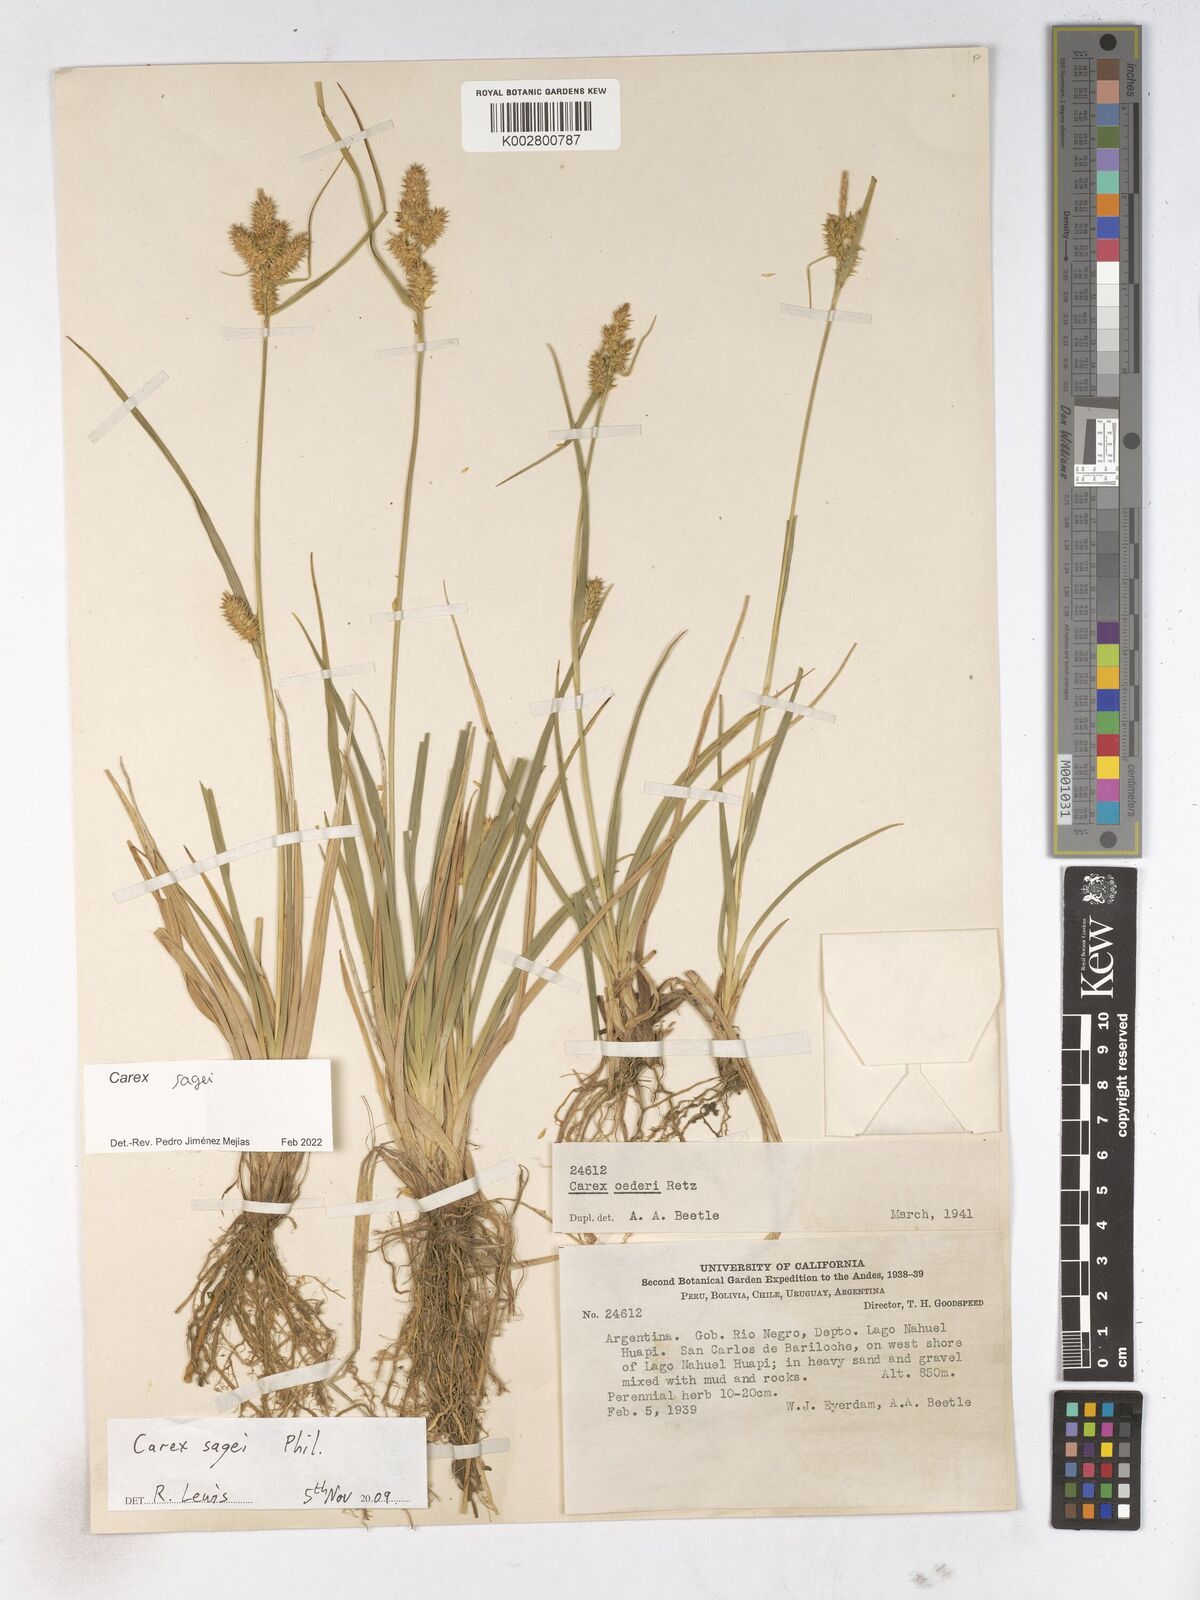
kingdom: Plantae
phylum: Tracheophyta
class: Liliopsida
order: Poales
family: Cyperaceae
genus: Carex
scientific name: Carex sagei
